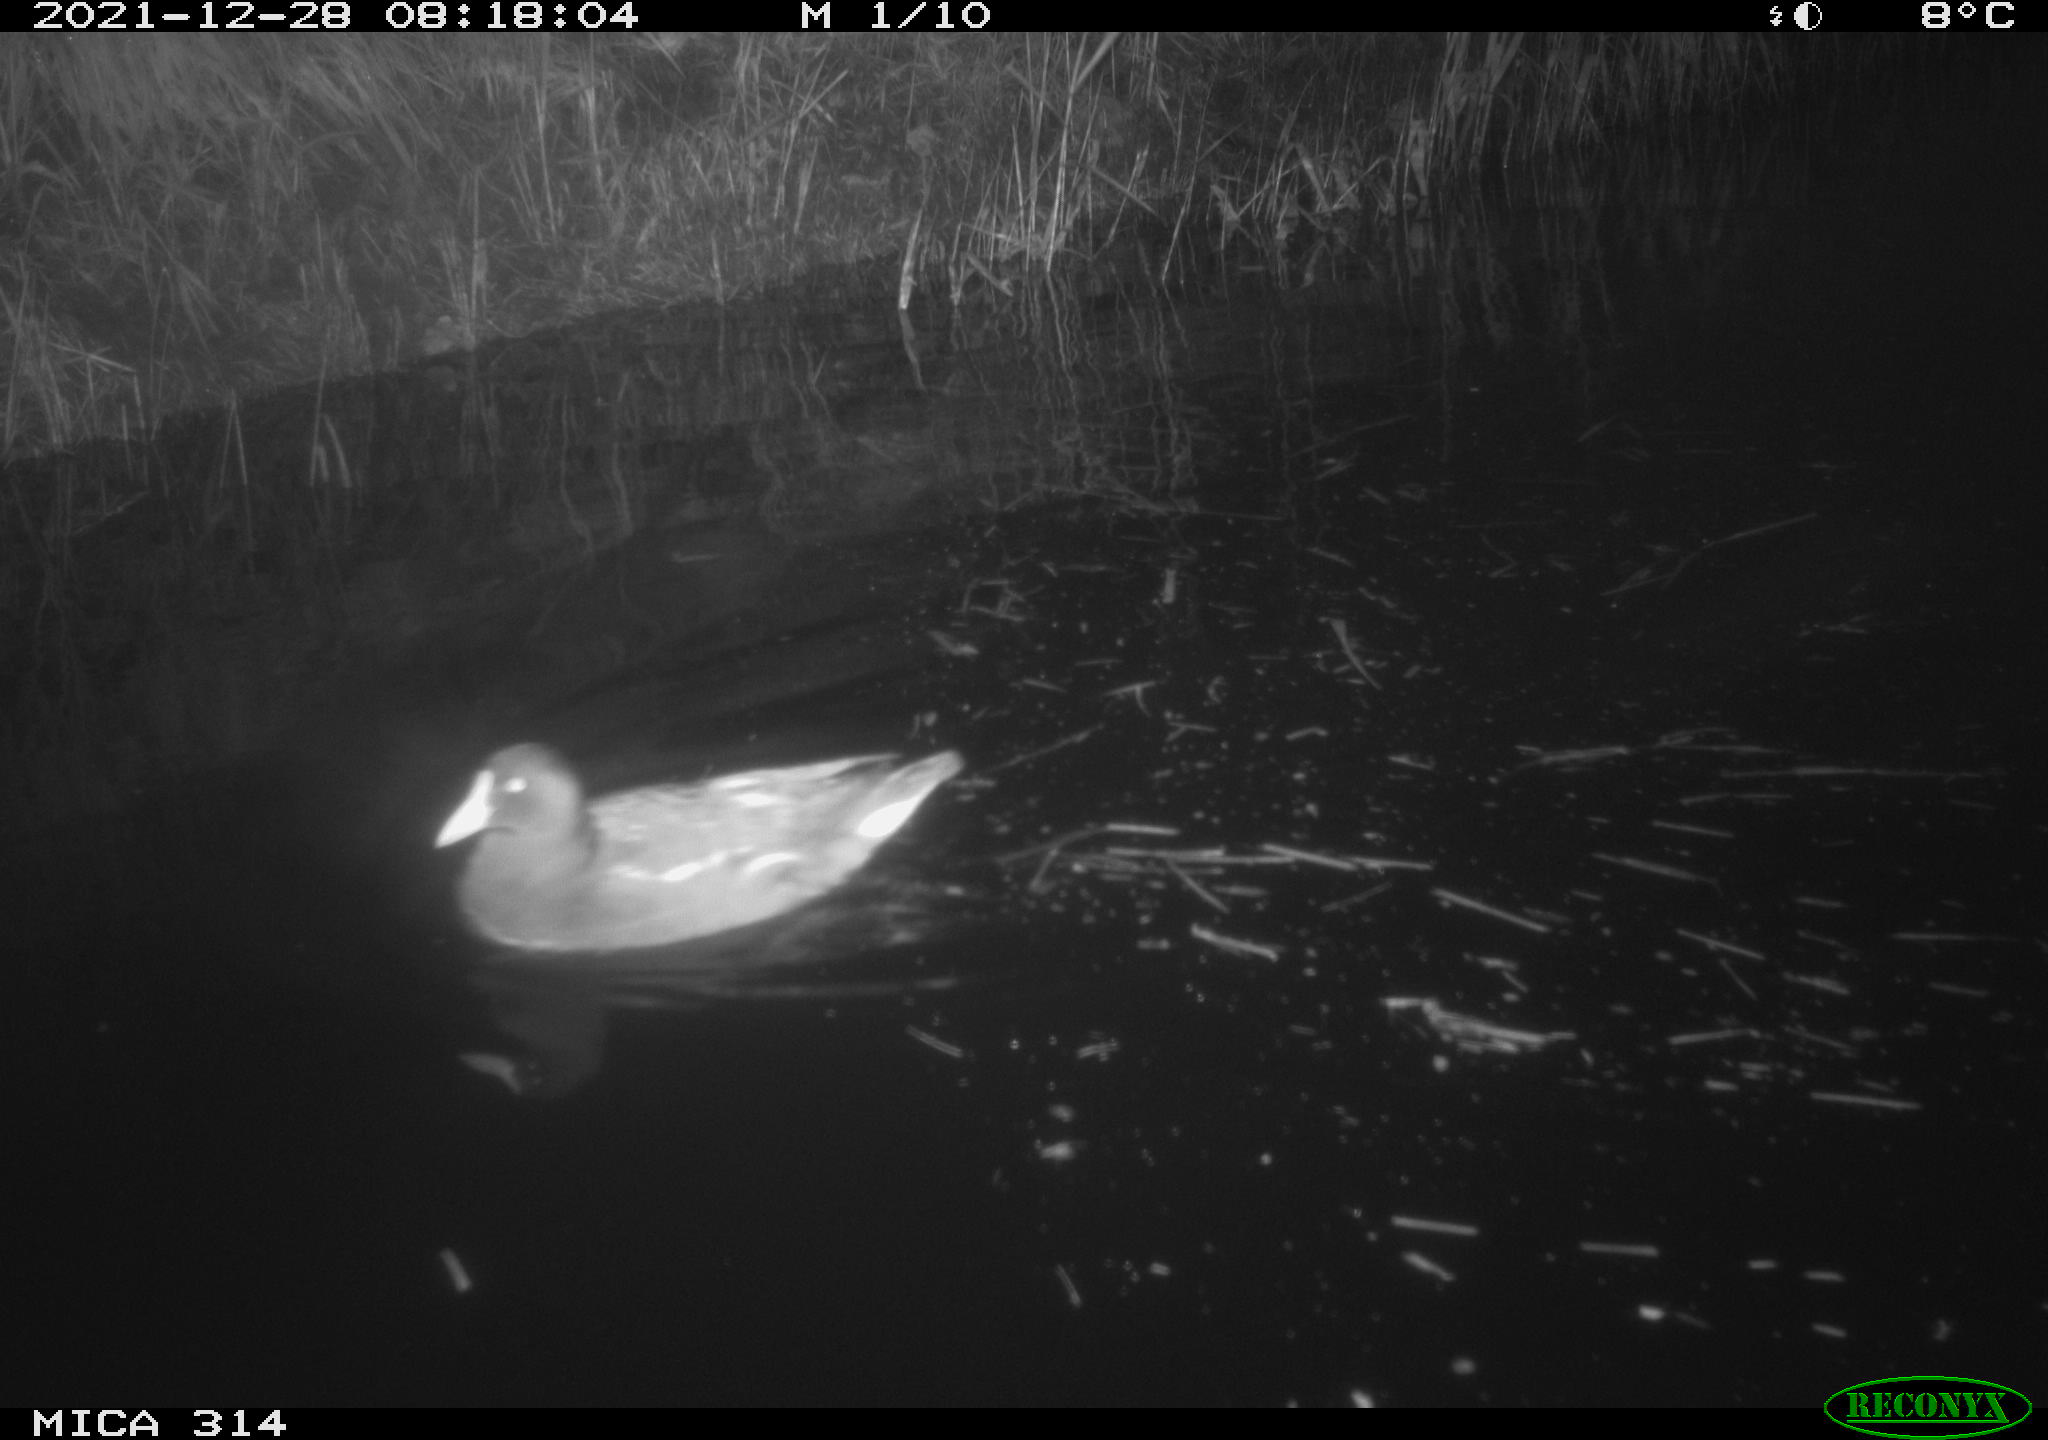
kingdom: Animalia
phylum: Chordata
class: Aves
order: Gruiformes
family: Rallidae
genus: Gallinula
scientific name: Gallinula chloropus
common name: Common moorhen
